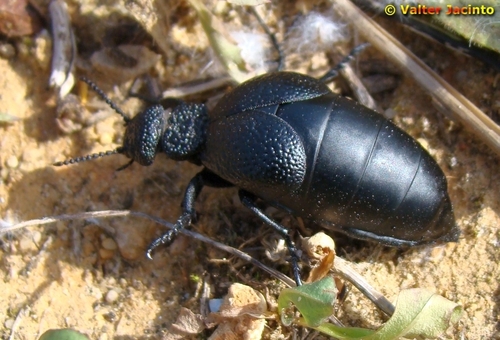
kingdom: Animalia
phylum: Arthropoda
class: Insecta
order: Coleoptera
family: Meloidae
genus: Meloe
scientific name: Meloe tuccius
